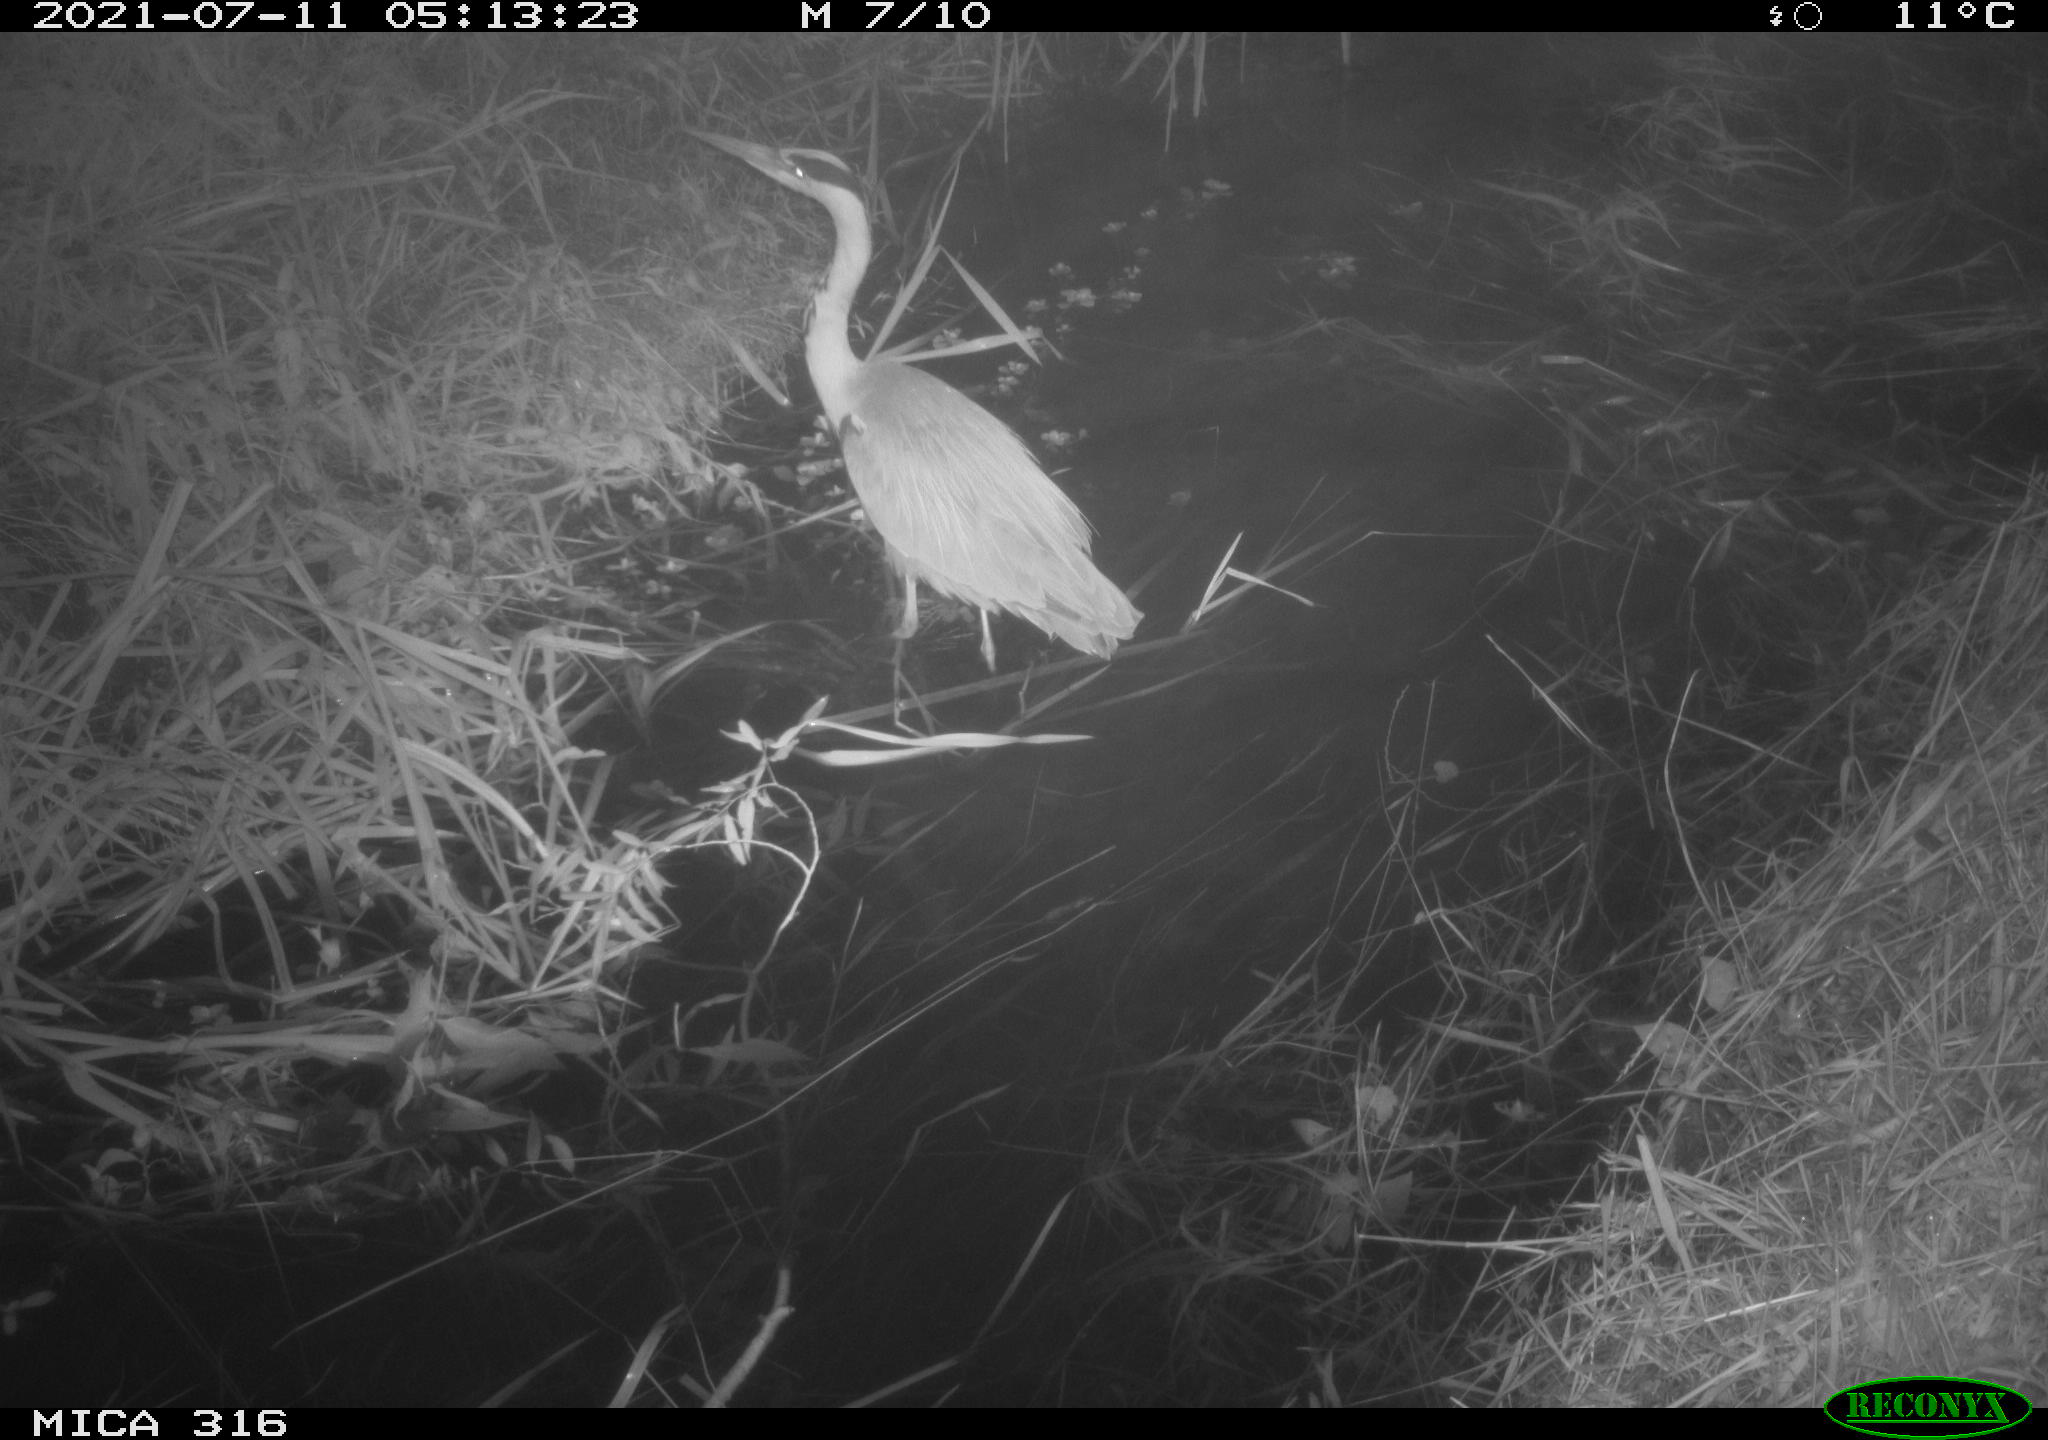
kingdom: Animalia
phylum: Chordata
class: Aves
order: Pelecaniformes
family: Ardeidae
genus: Ardea
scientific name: Ardea
